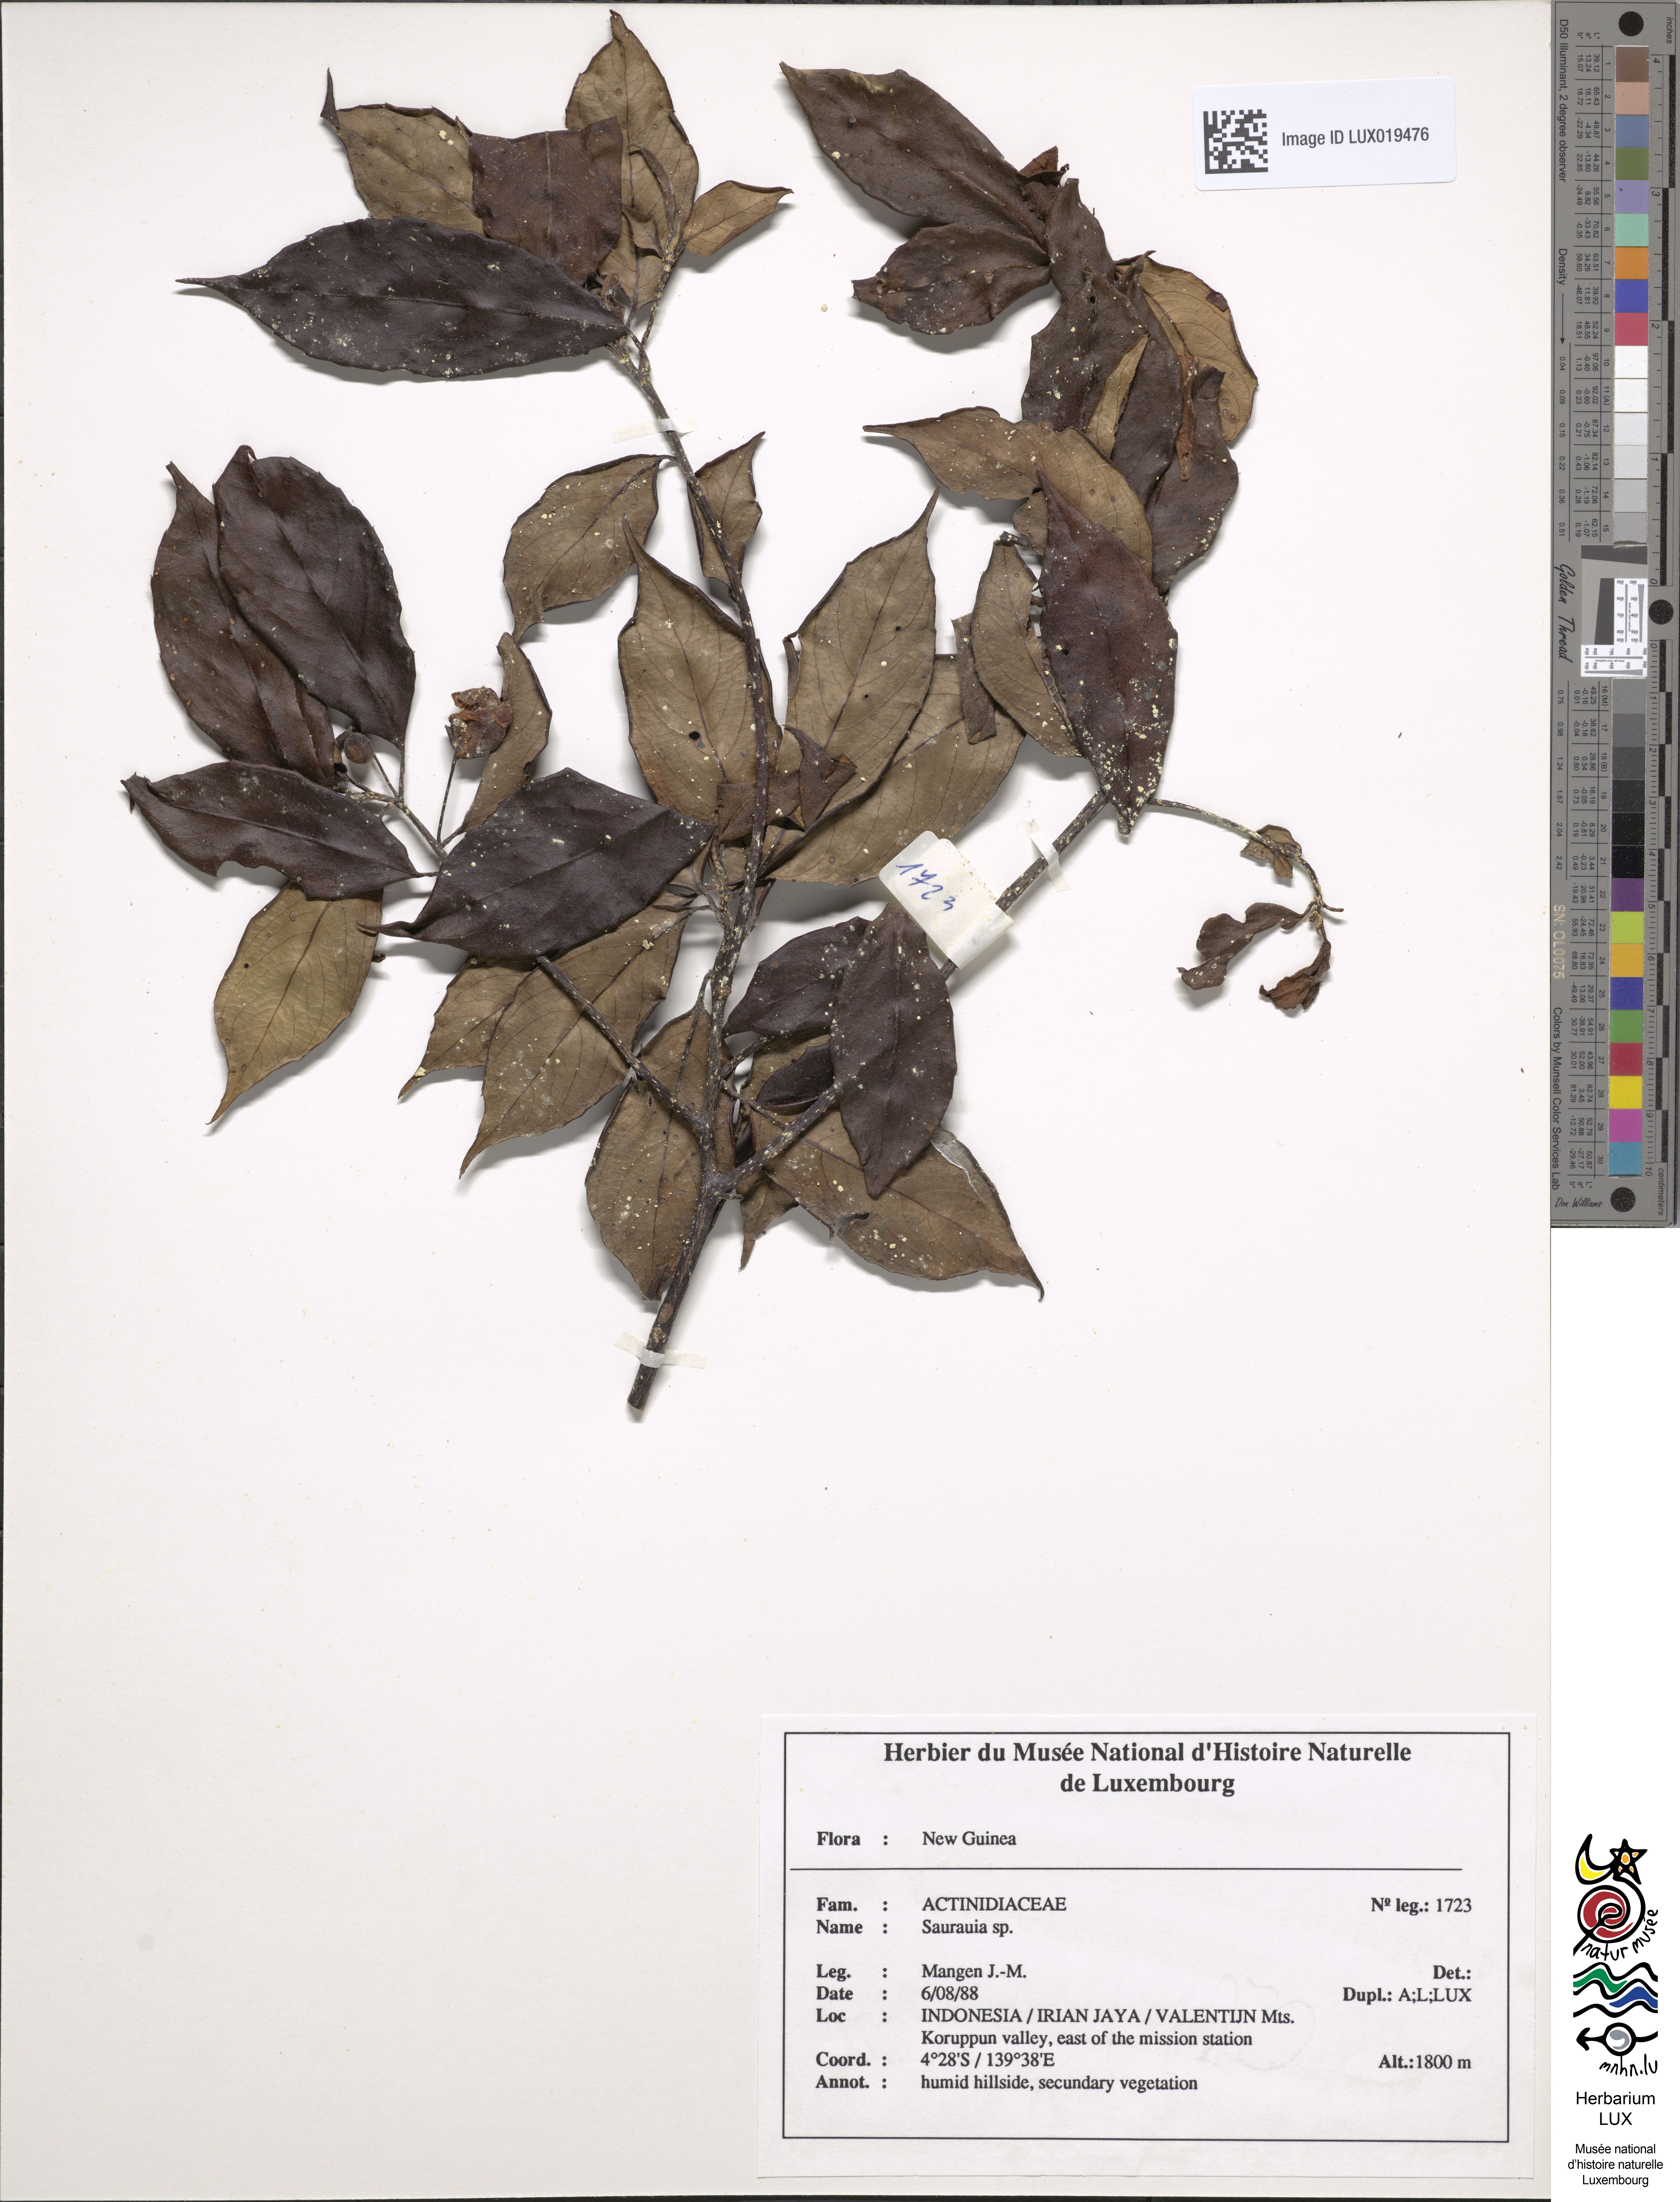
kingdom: Plantae
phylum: Tracheophyta
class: Magnoliopsida
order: Ericales
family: Actinidiaceae
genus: Saurauia
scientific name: Saurauia
